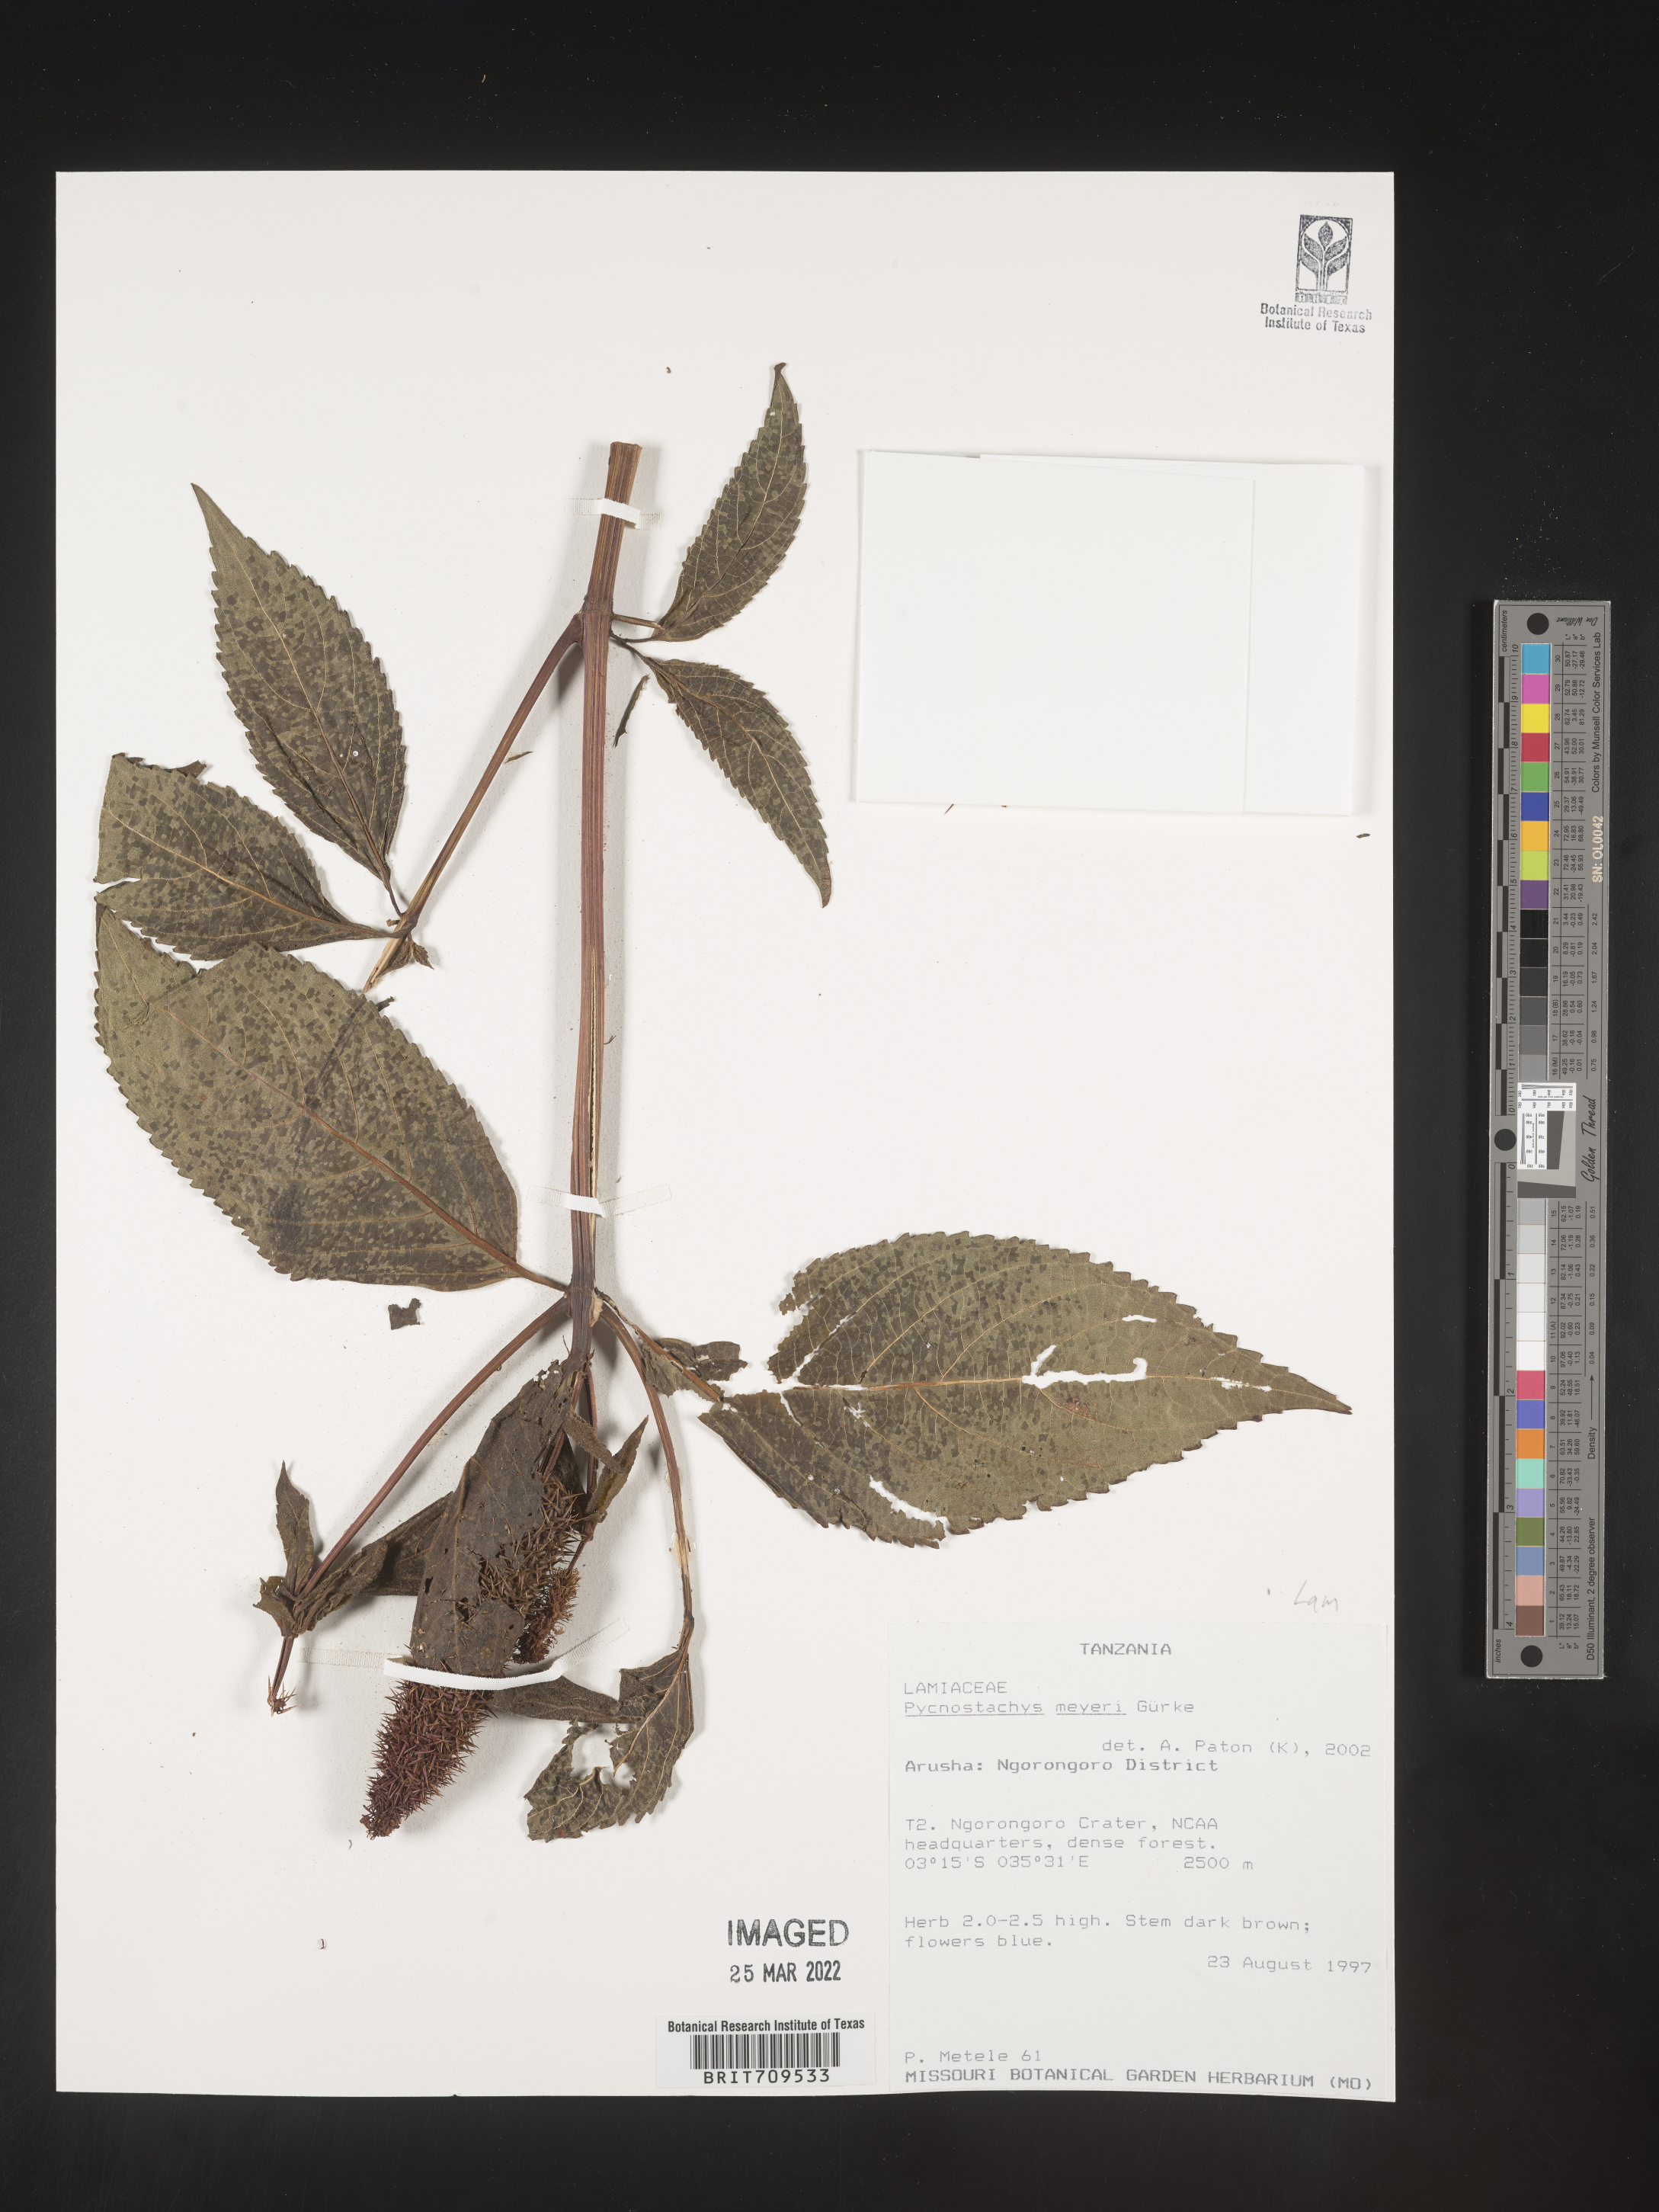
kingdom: Plantae
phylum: Tracheophyta
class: Magnoliopsida
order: Lamiales
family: Lamiaceae
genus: Coleus
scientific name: Coleus
